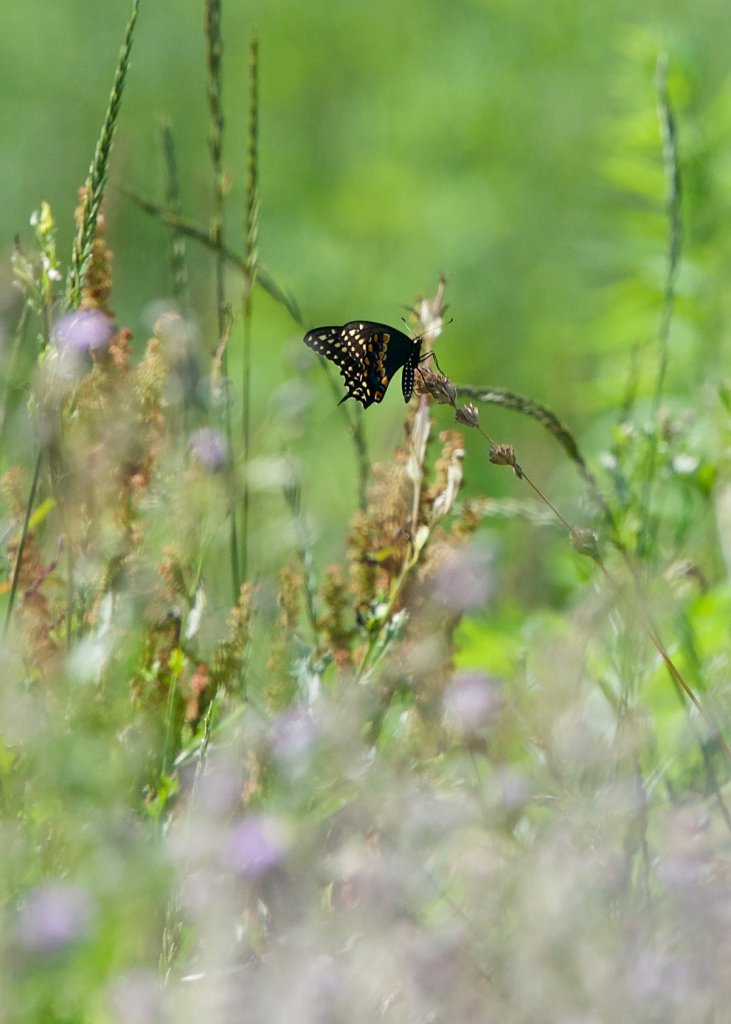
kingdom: Animalia
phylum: Arthropoda
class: Insecta
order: Lepidoptera
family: Papilionidae
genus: Papilio
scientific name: Papilio polyxenes
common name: Black Swallowtail
